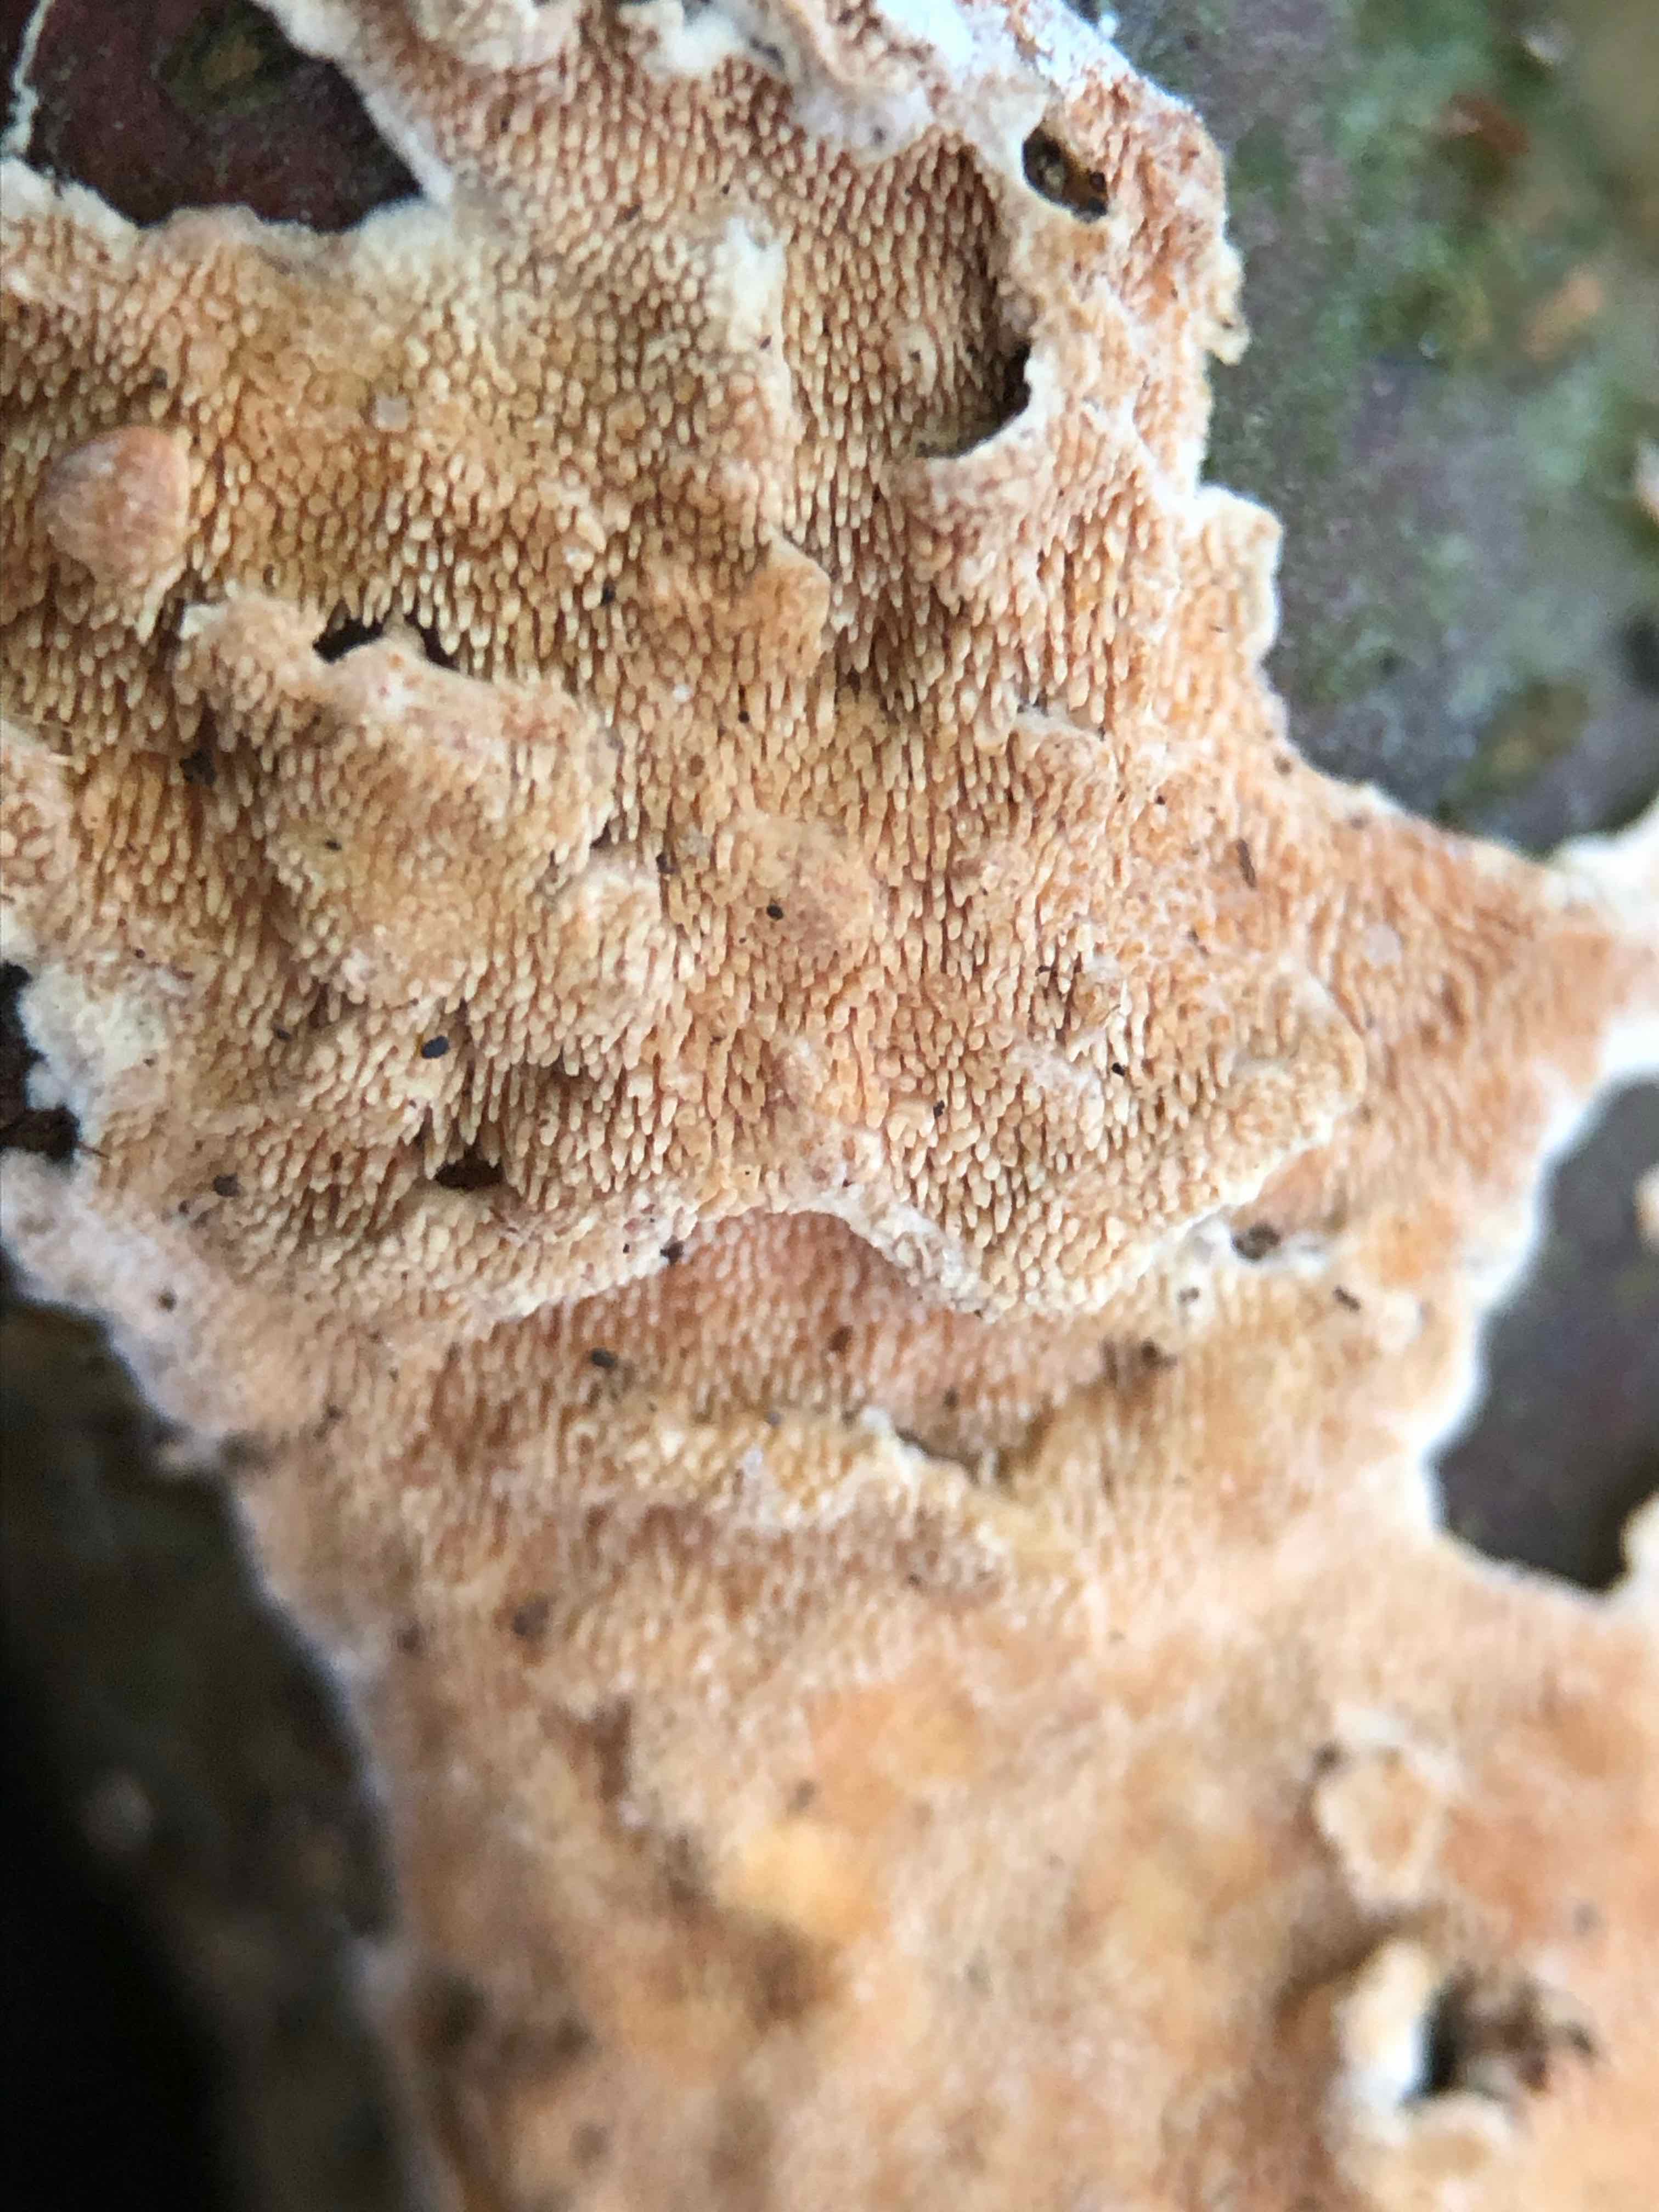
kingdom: Fungi
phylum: Basidiomycota
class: Agaricomycetes
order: Polyporales
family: Steccherinaceae
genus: Steccherinum
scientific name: Steccherinum ochraceum
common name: almindelig skønpig
